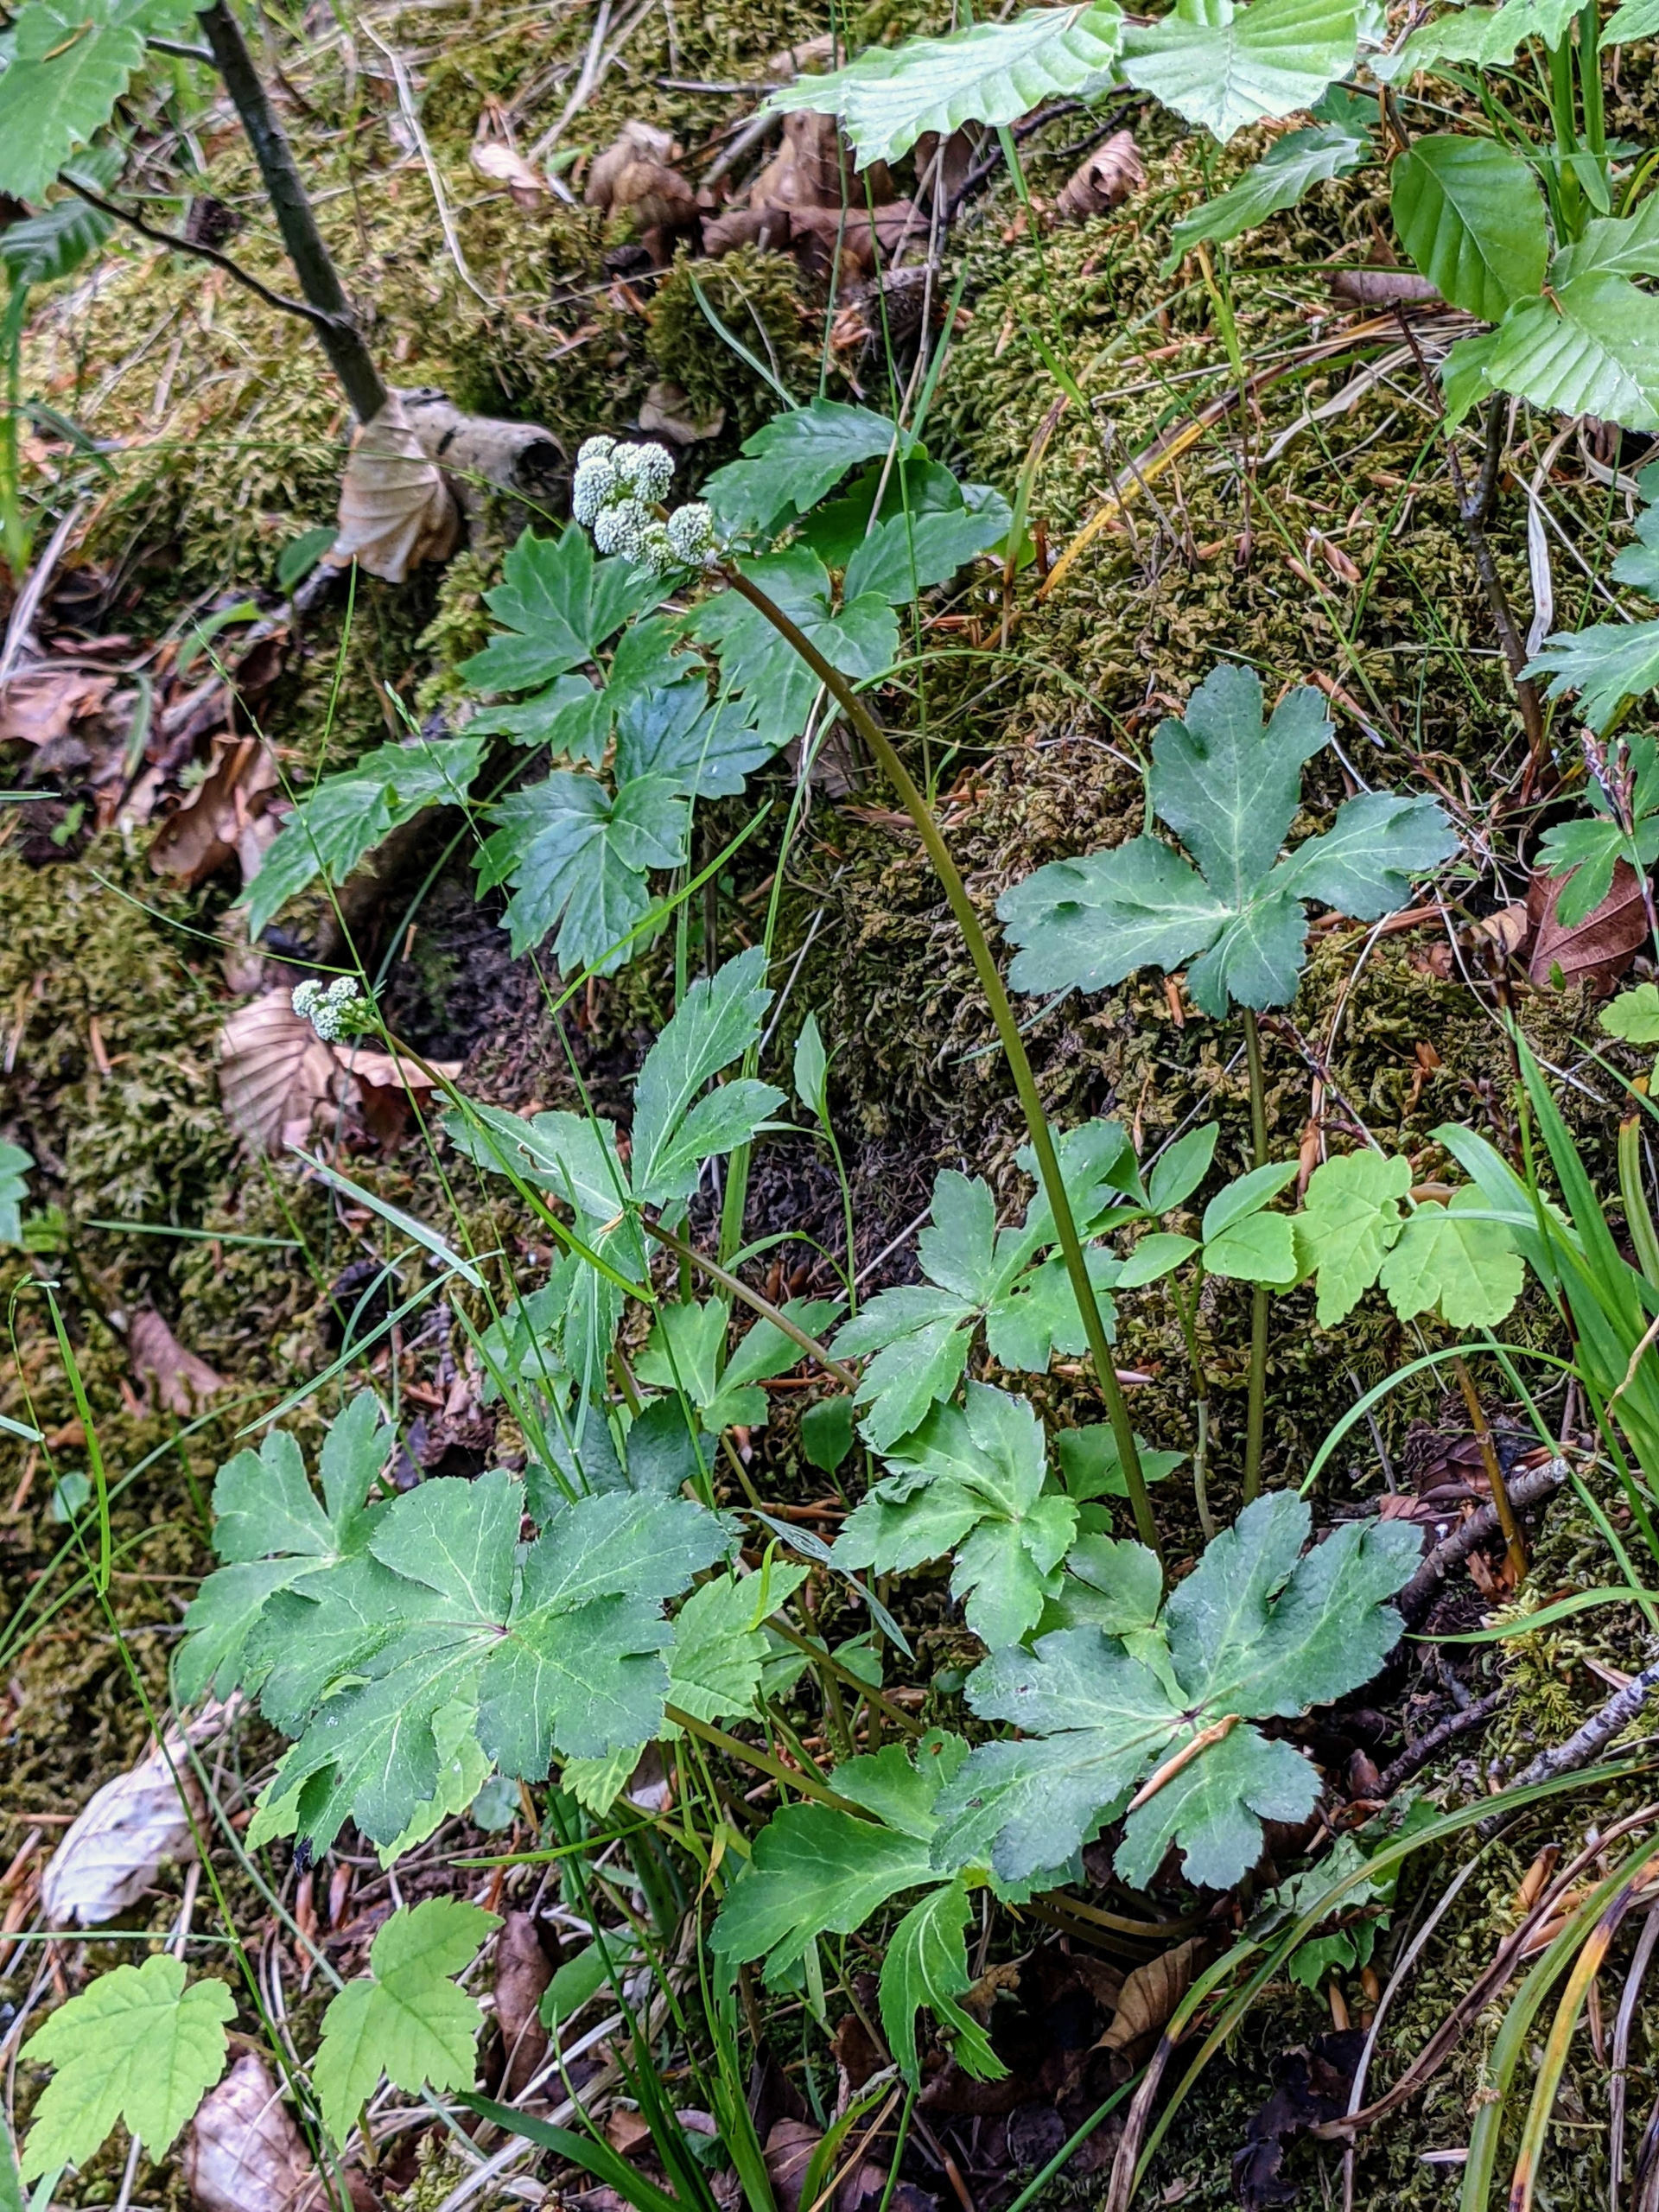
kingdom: Plantae
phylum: Tracheophyta
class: Magnoliopsida
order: Apiales
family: Apiaceae
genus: Sanicula
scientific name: Sanicula europaea
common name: Sanikel
